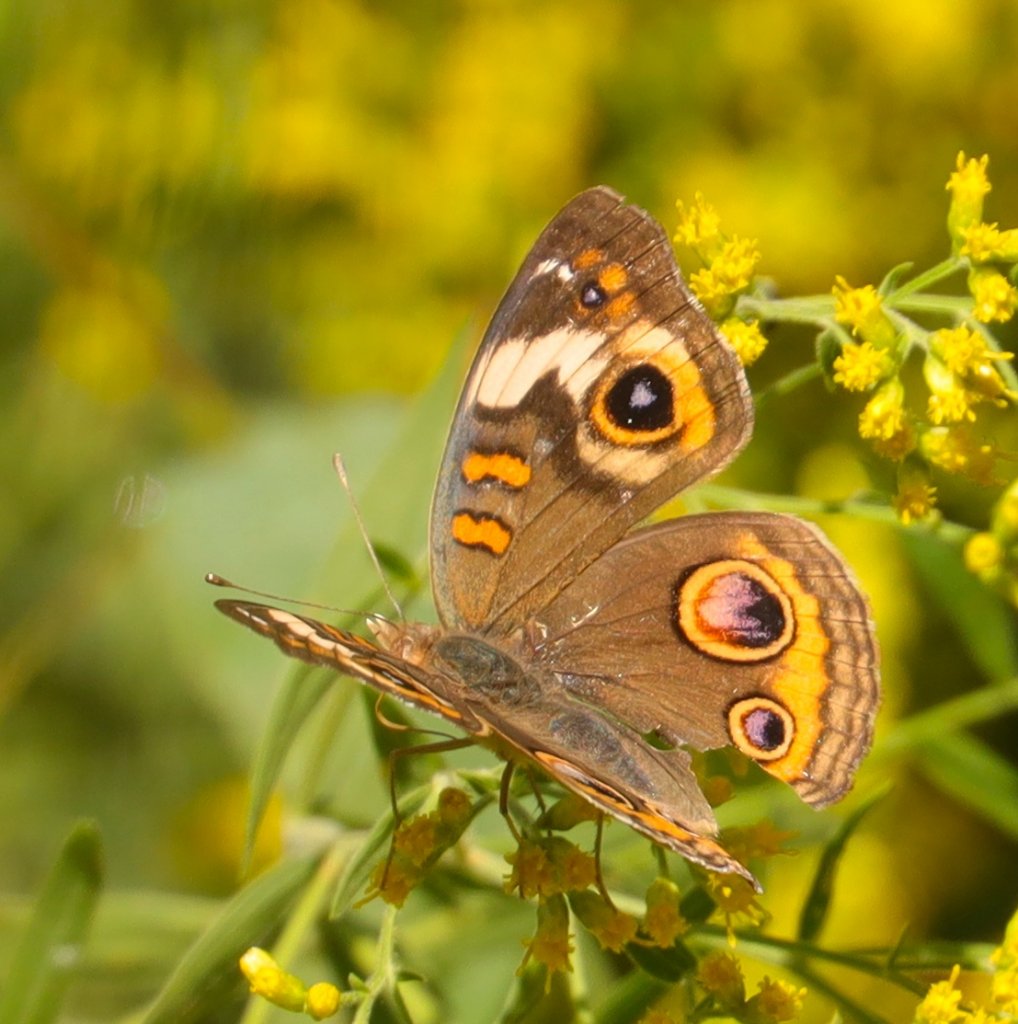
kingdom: Animalia
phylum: Arthropoda
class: Insecta
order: Lepidoptera
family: Nymphalidae
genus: Junonia
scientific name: Junonia coenia
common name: Common Buckeye
